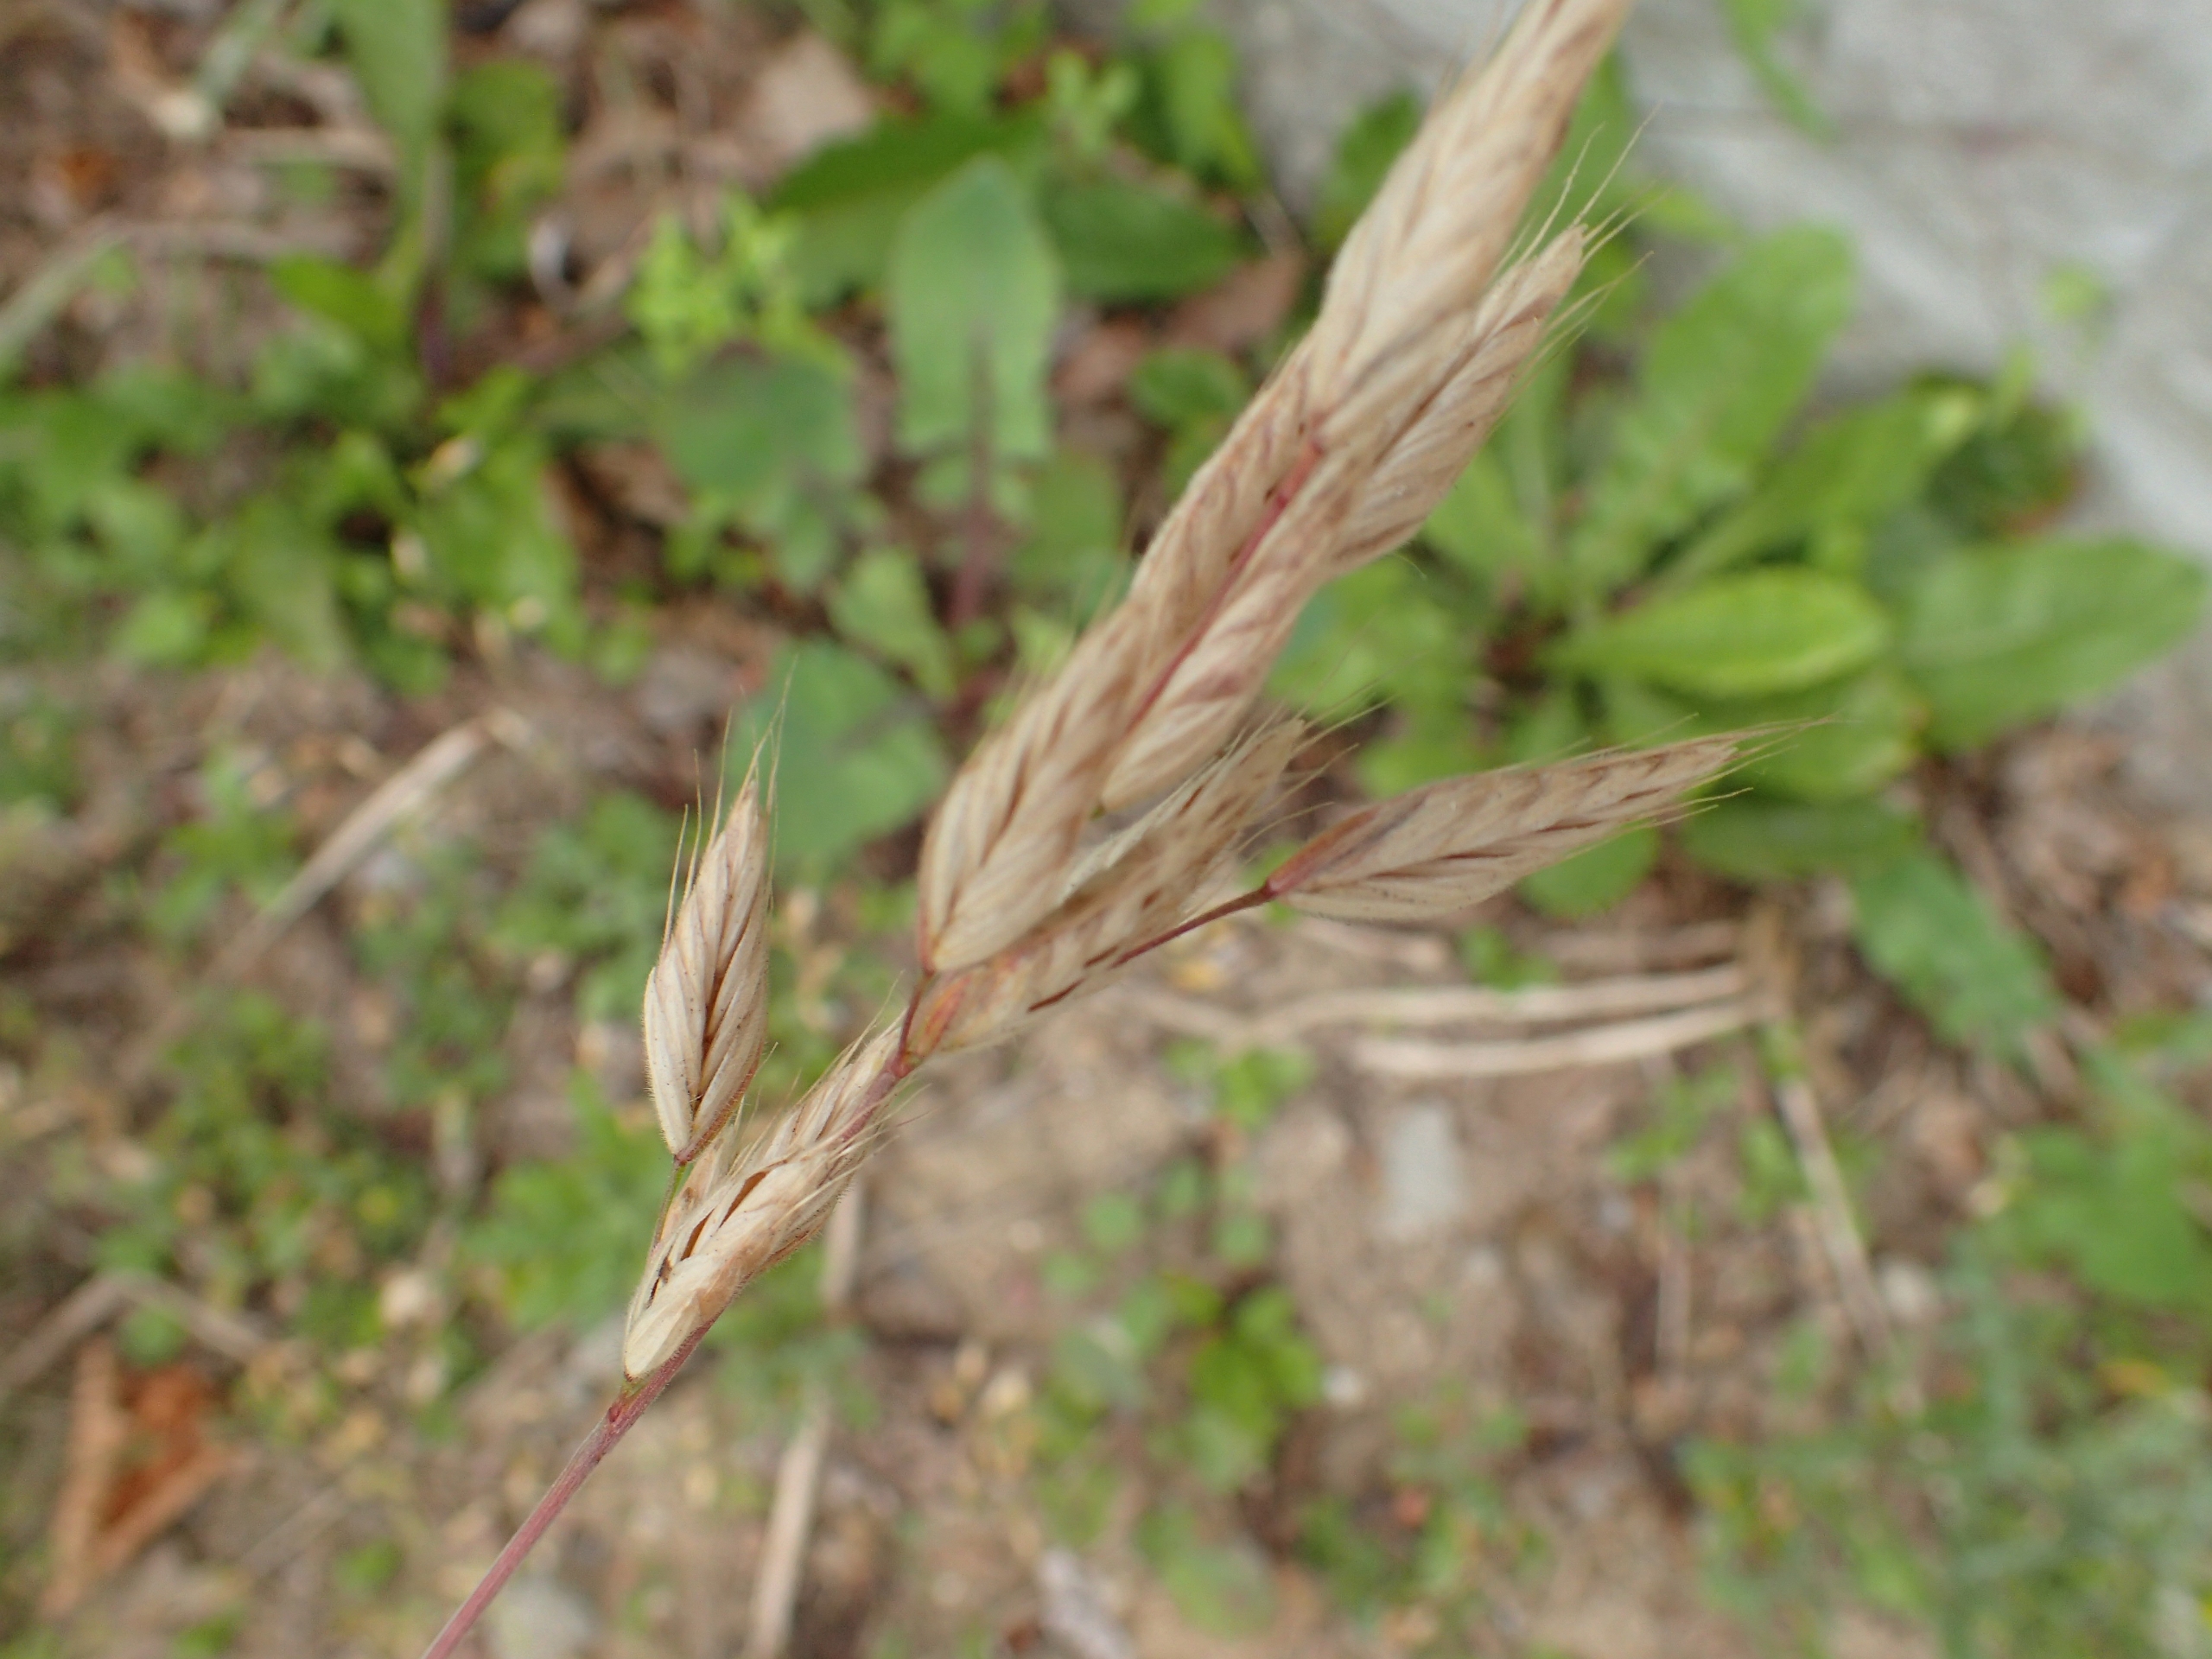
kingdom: Plantae
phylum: Tracheophyta
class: Liliopsida
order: Poales
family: Poaceae
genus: Bromus
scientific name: Bromus hordeaceus
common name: Blød hejre
